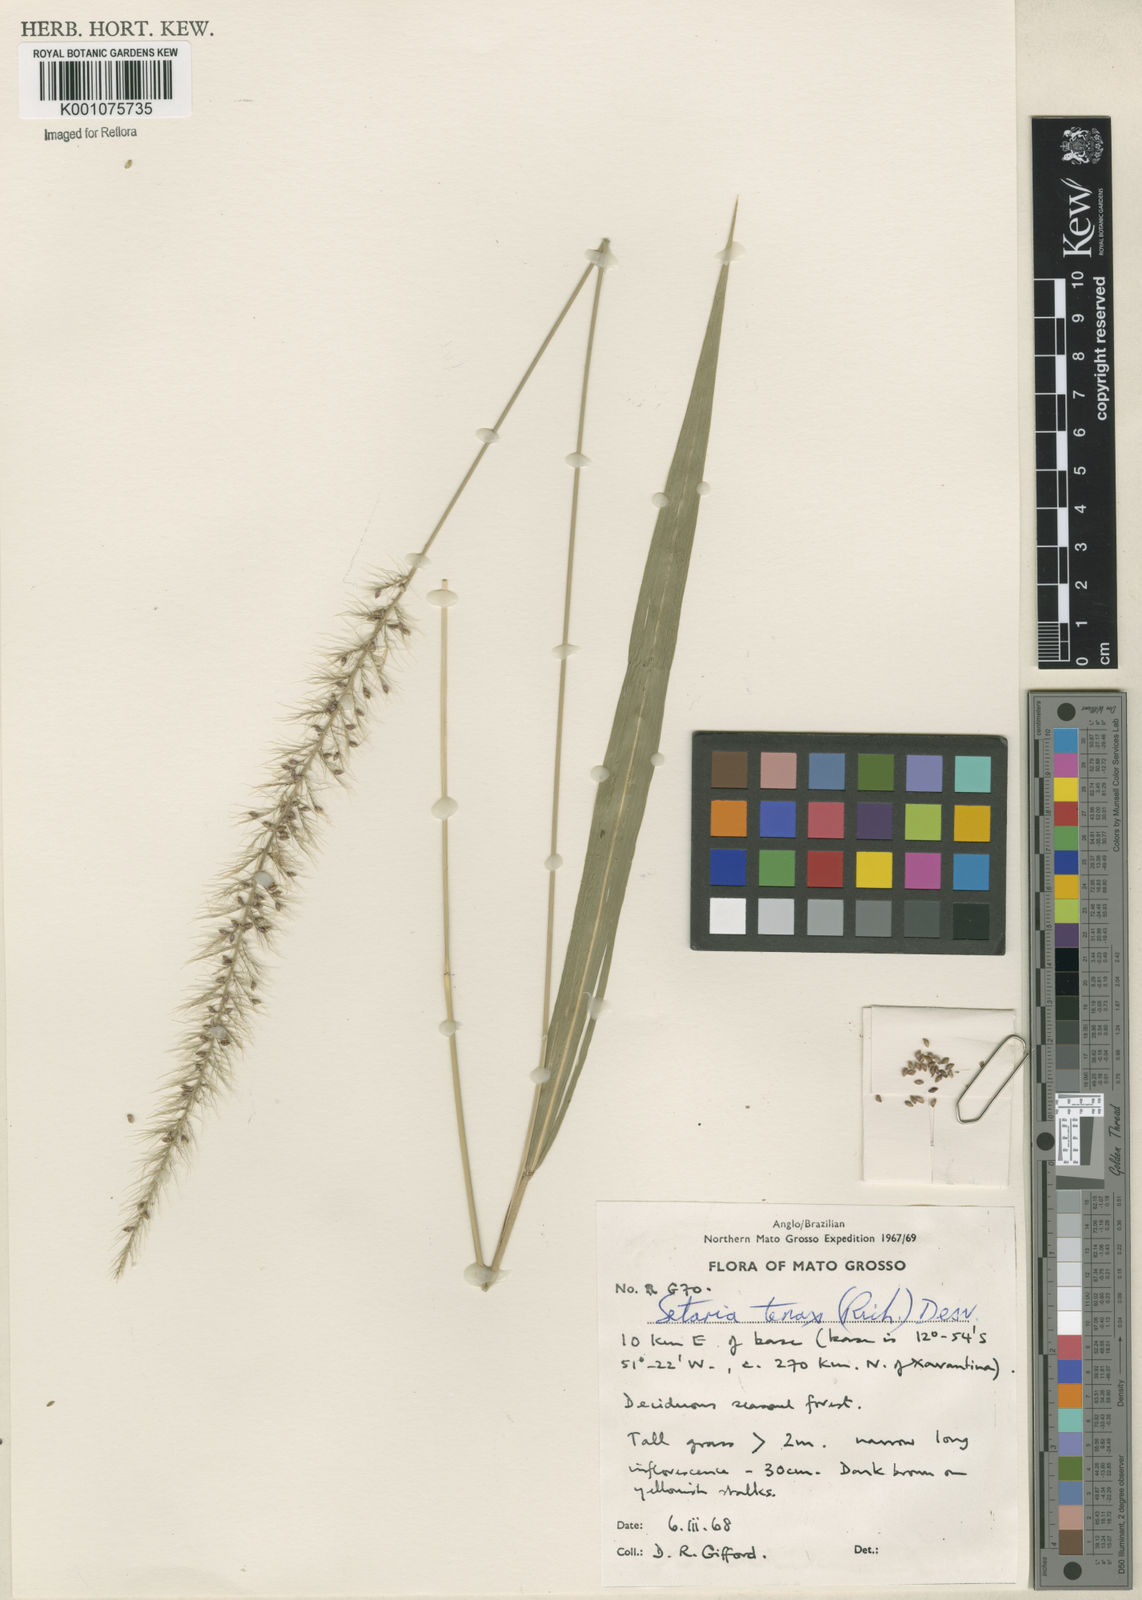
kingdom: Plantae
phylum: Tracheophyta
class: Liliopsida
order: Poales
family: Poaceae
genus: Setaria
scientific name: Setaria tenax
